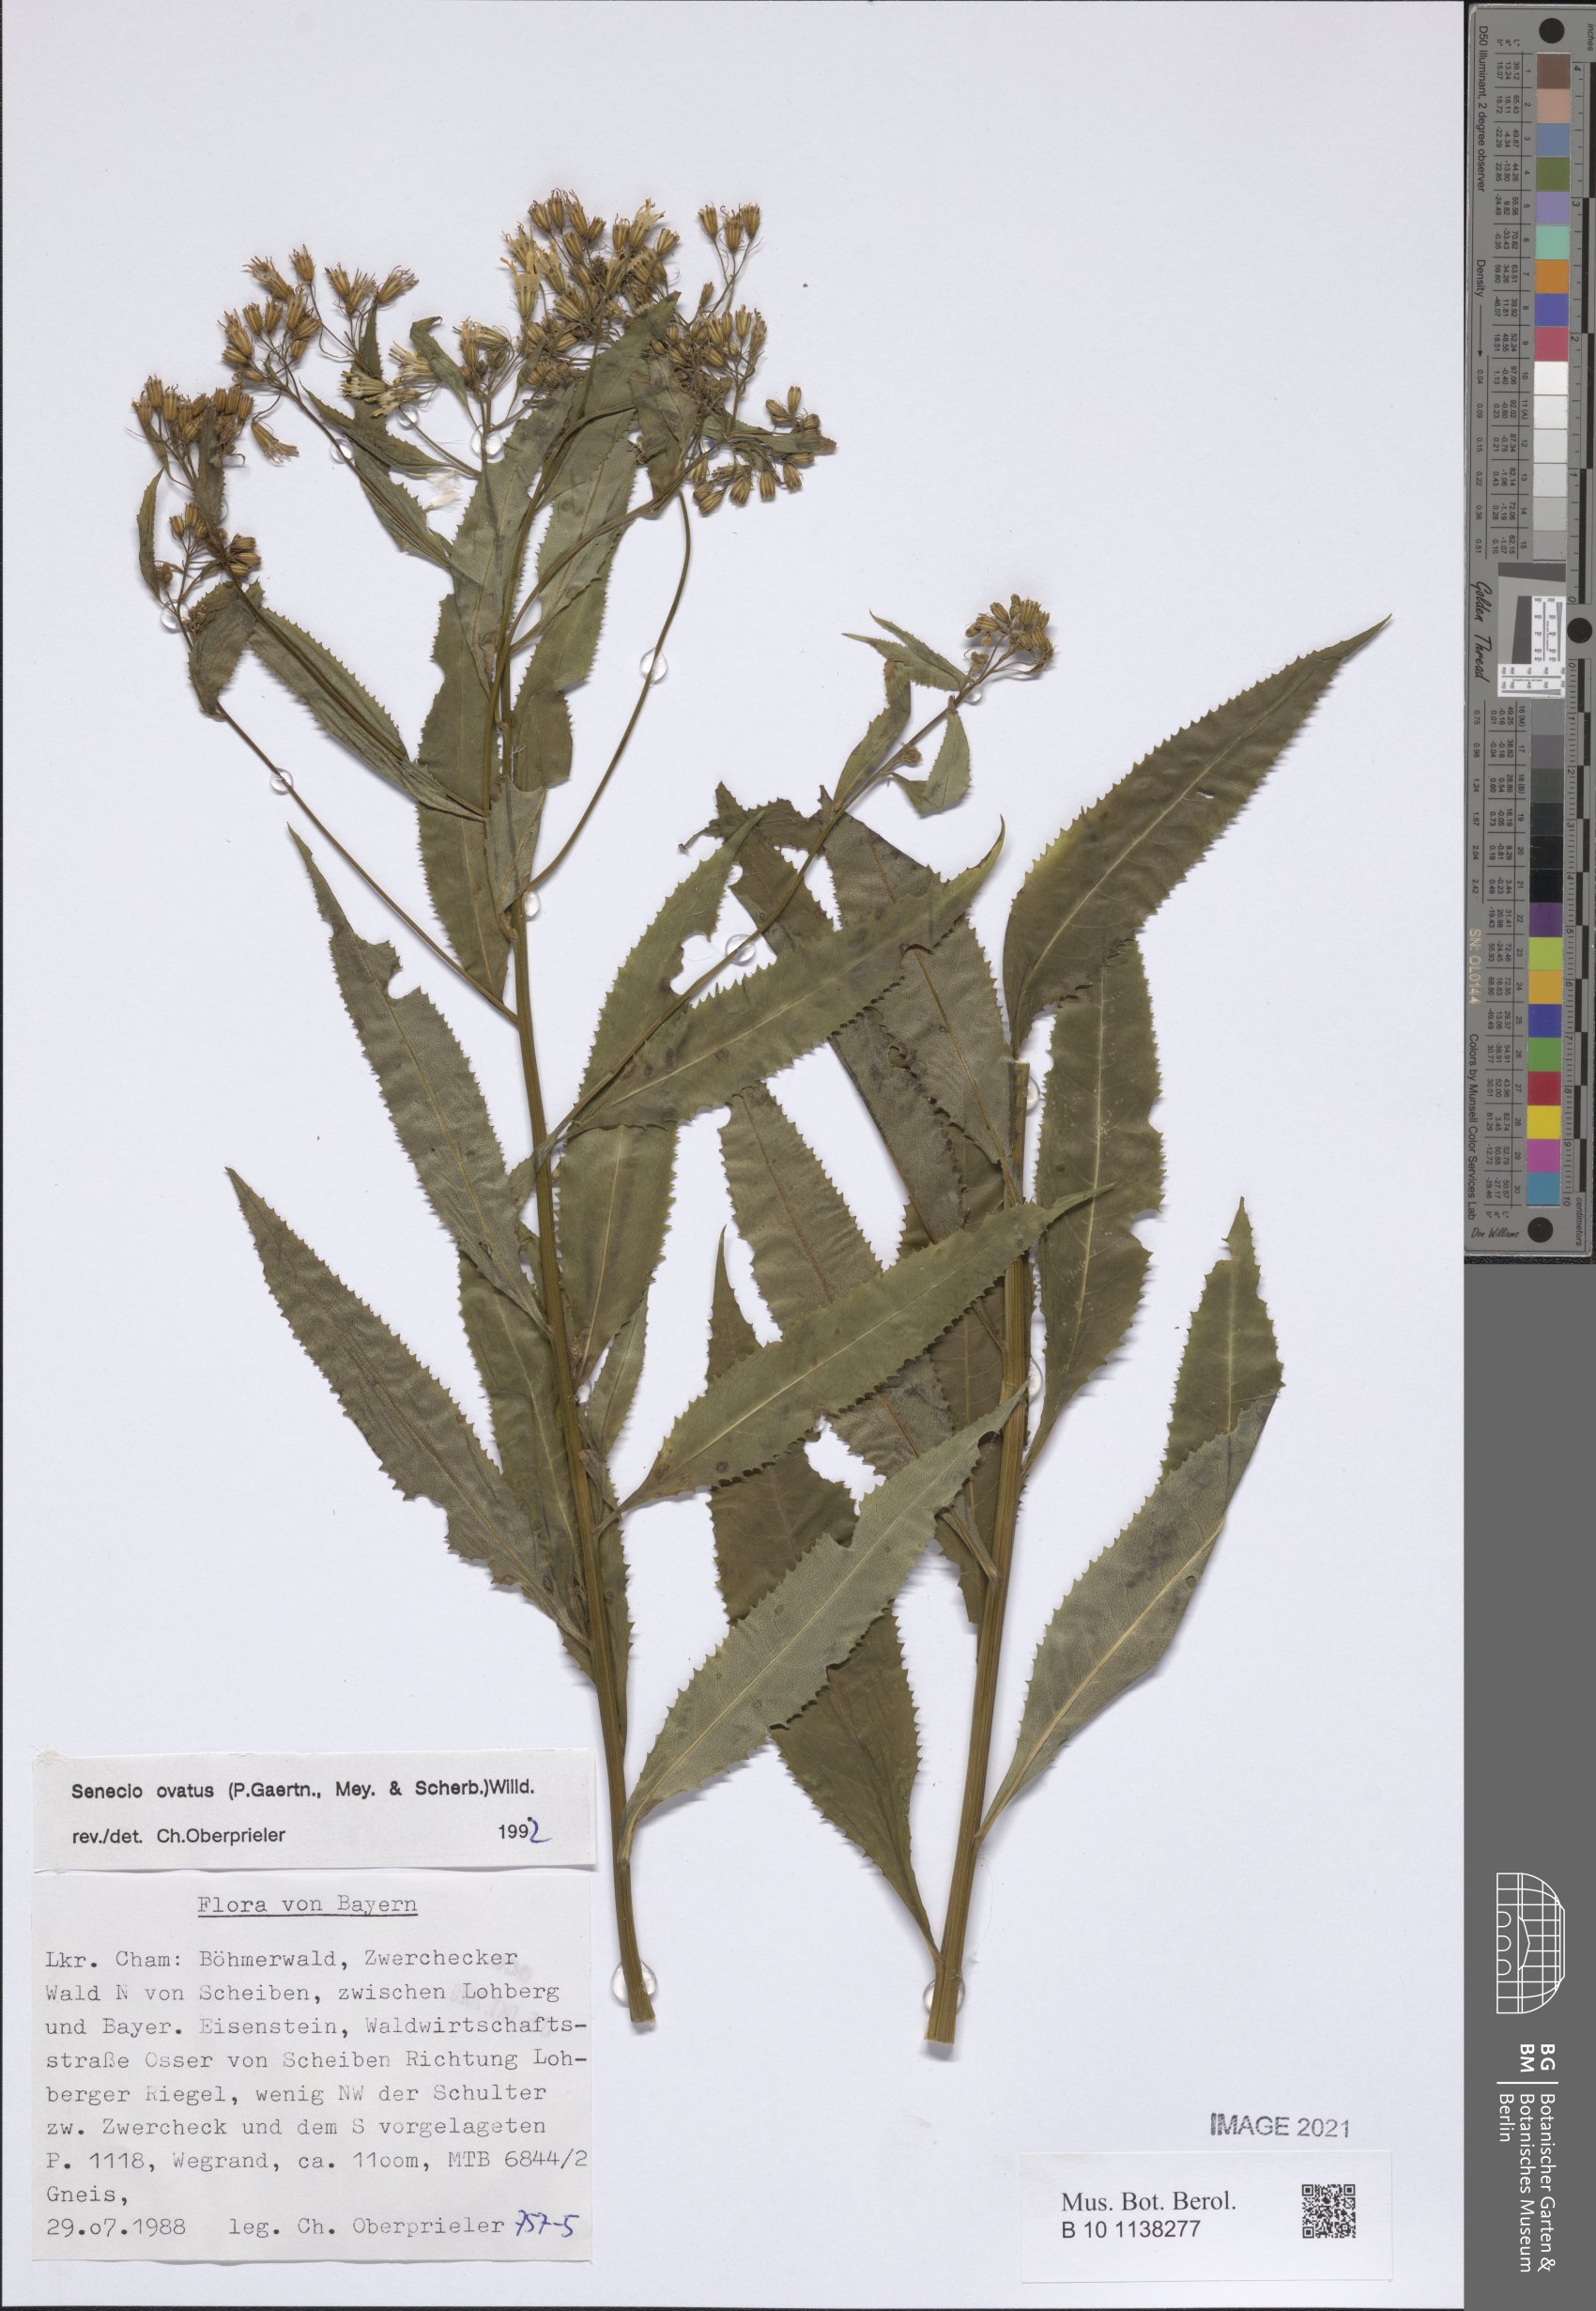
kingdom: Plantae
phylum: Tracheophyta
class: Magnoliopsida
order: Asterales
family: Asteraceae
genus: Senecio
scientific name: Senecio ovatus
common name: Wood ragwort
